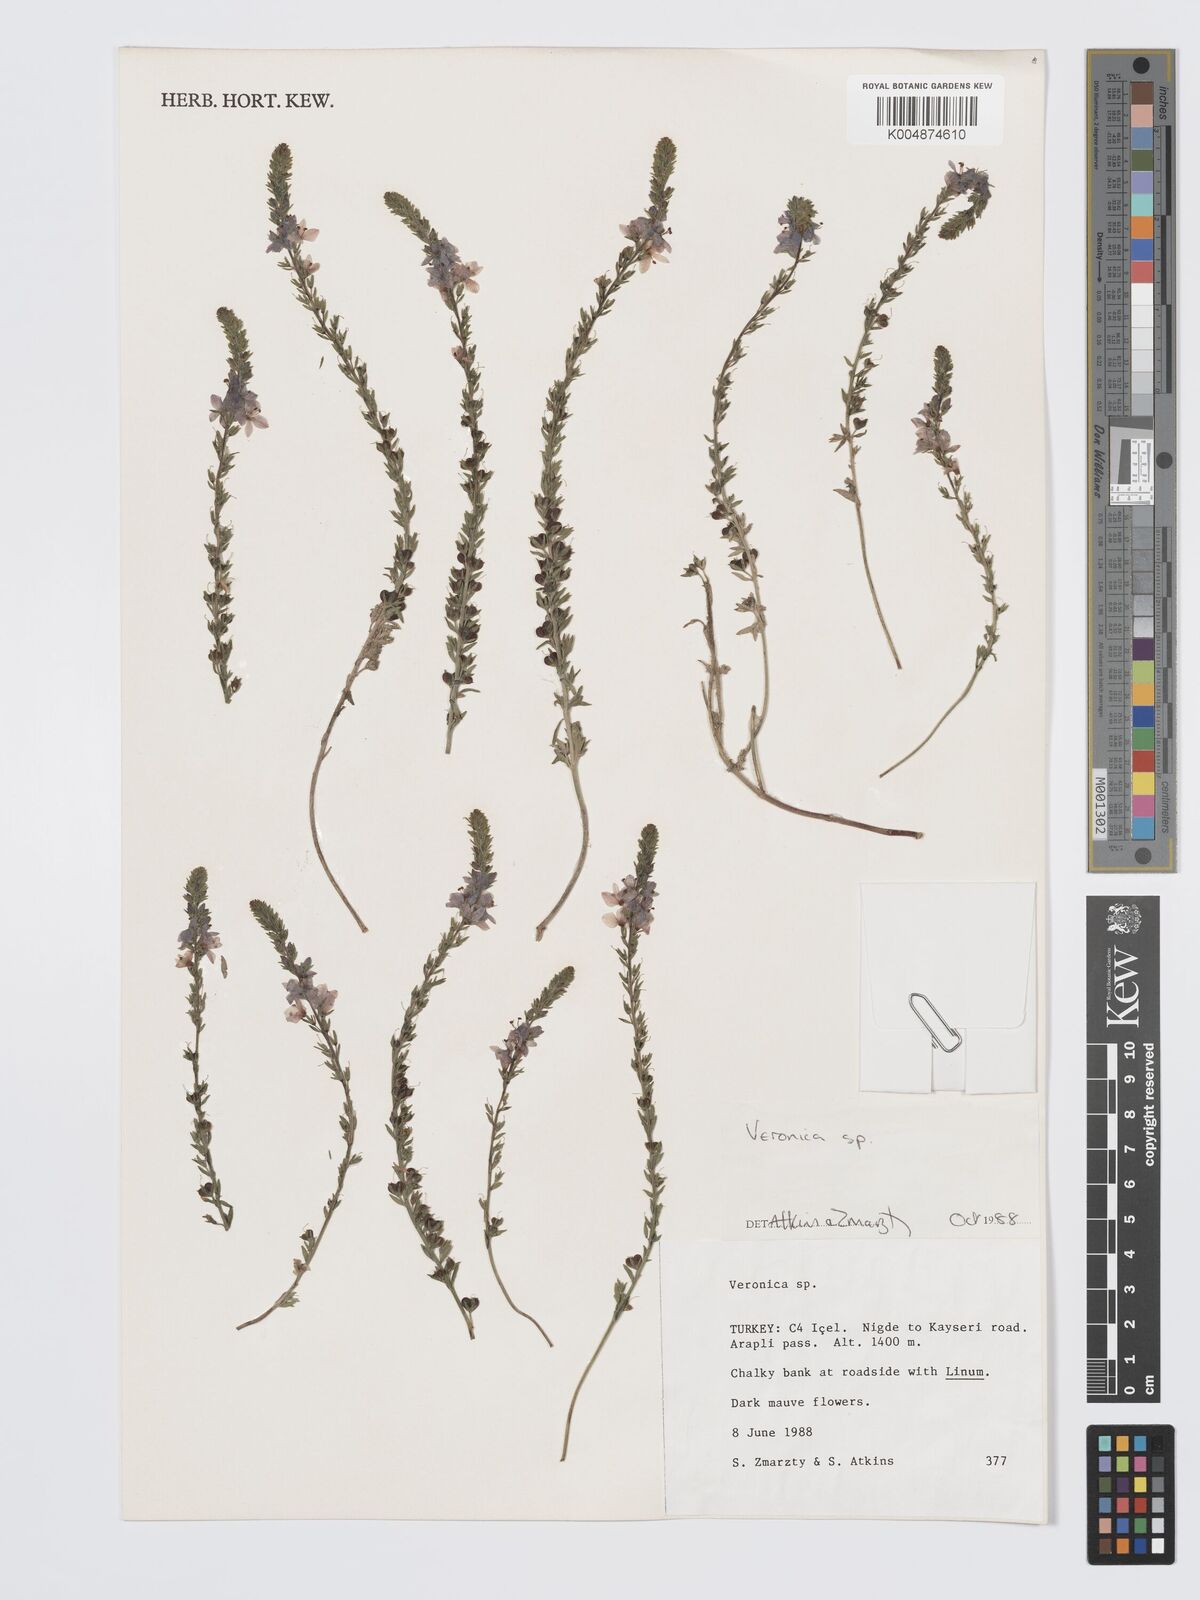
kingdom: Plantae
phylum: Tracheophyta
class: Magnoliopsida
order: Lamiales
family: Plantaginaceae
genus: Veronica
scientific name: Veronica
